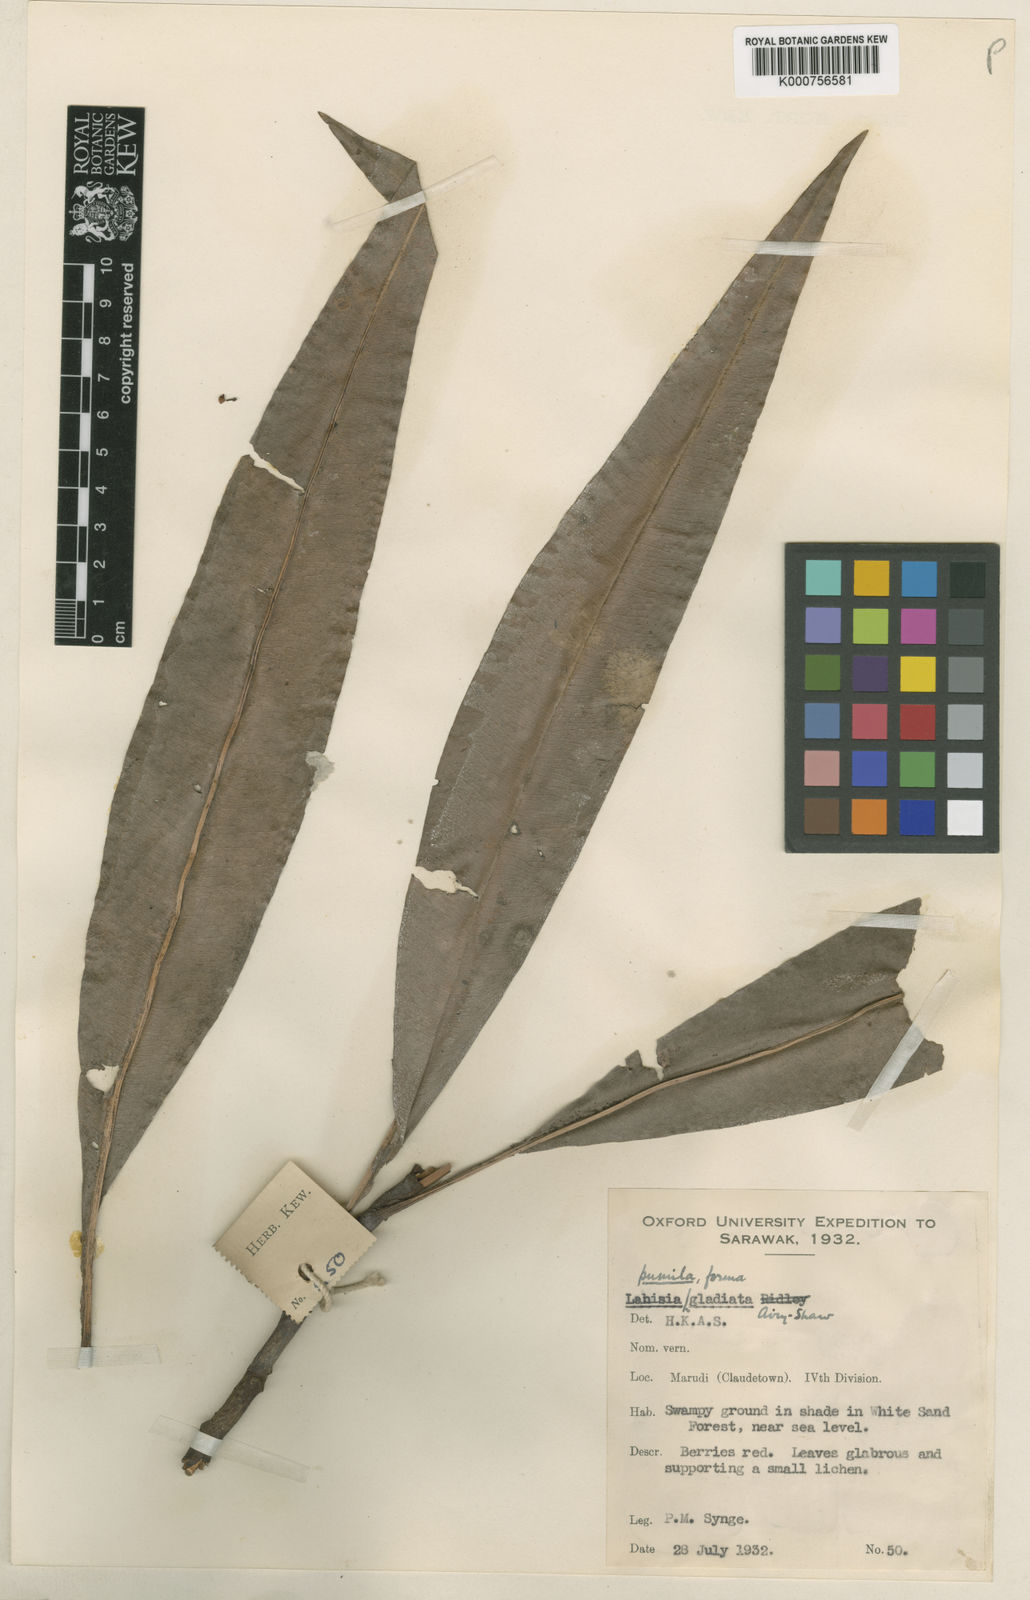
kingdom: Plantae
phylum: Tracheophyta
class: Magnoliopsida
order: Ericales
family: Primulaceae
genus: Labisia
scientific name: Labisia pumila
